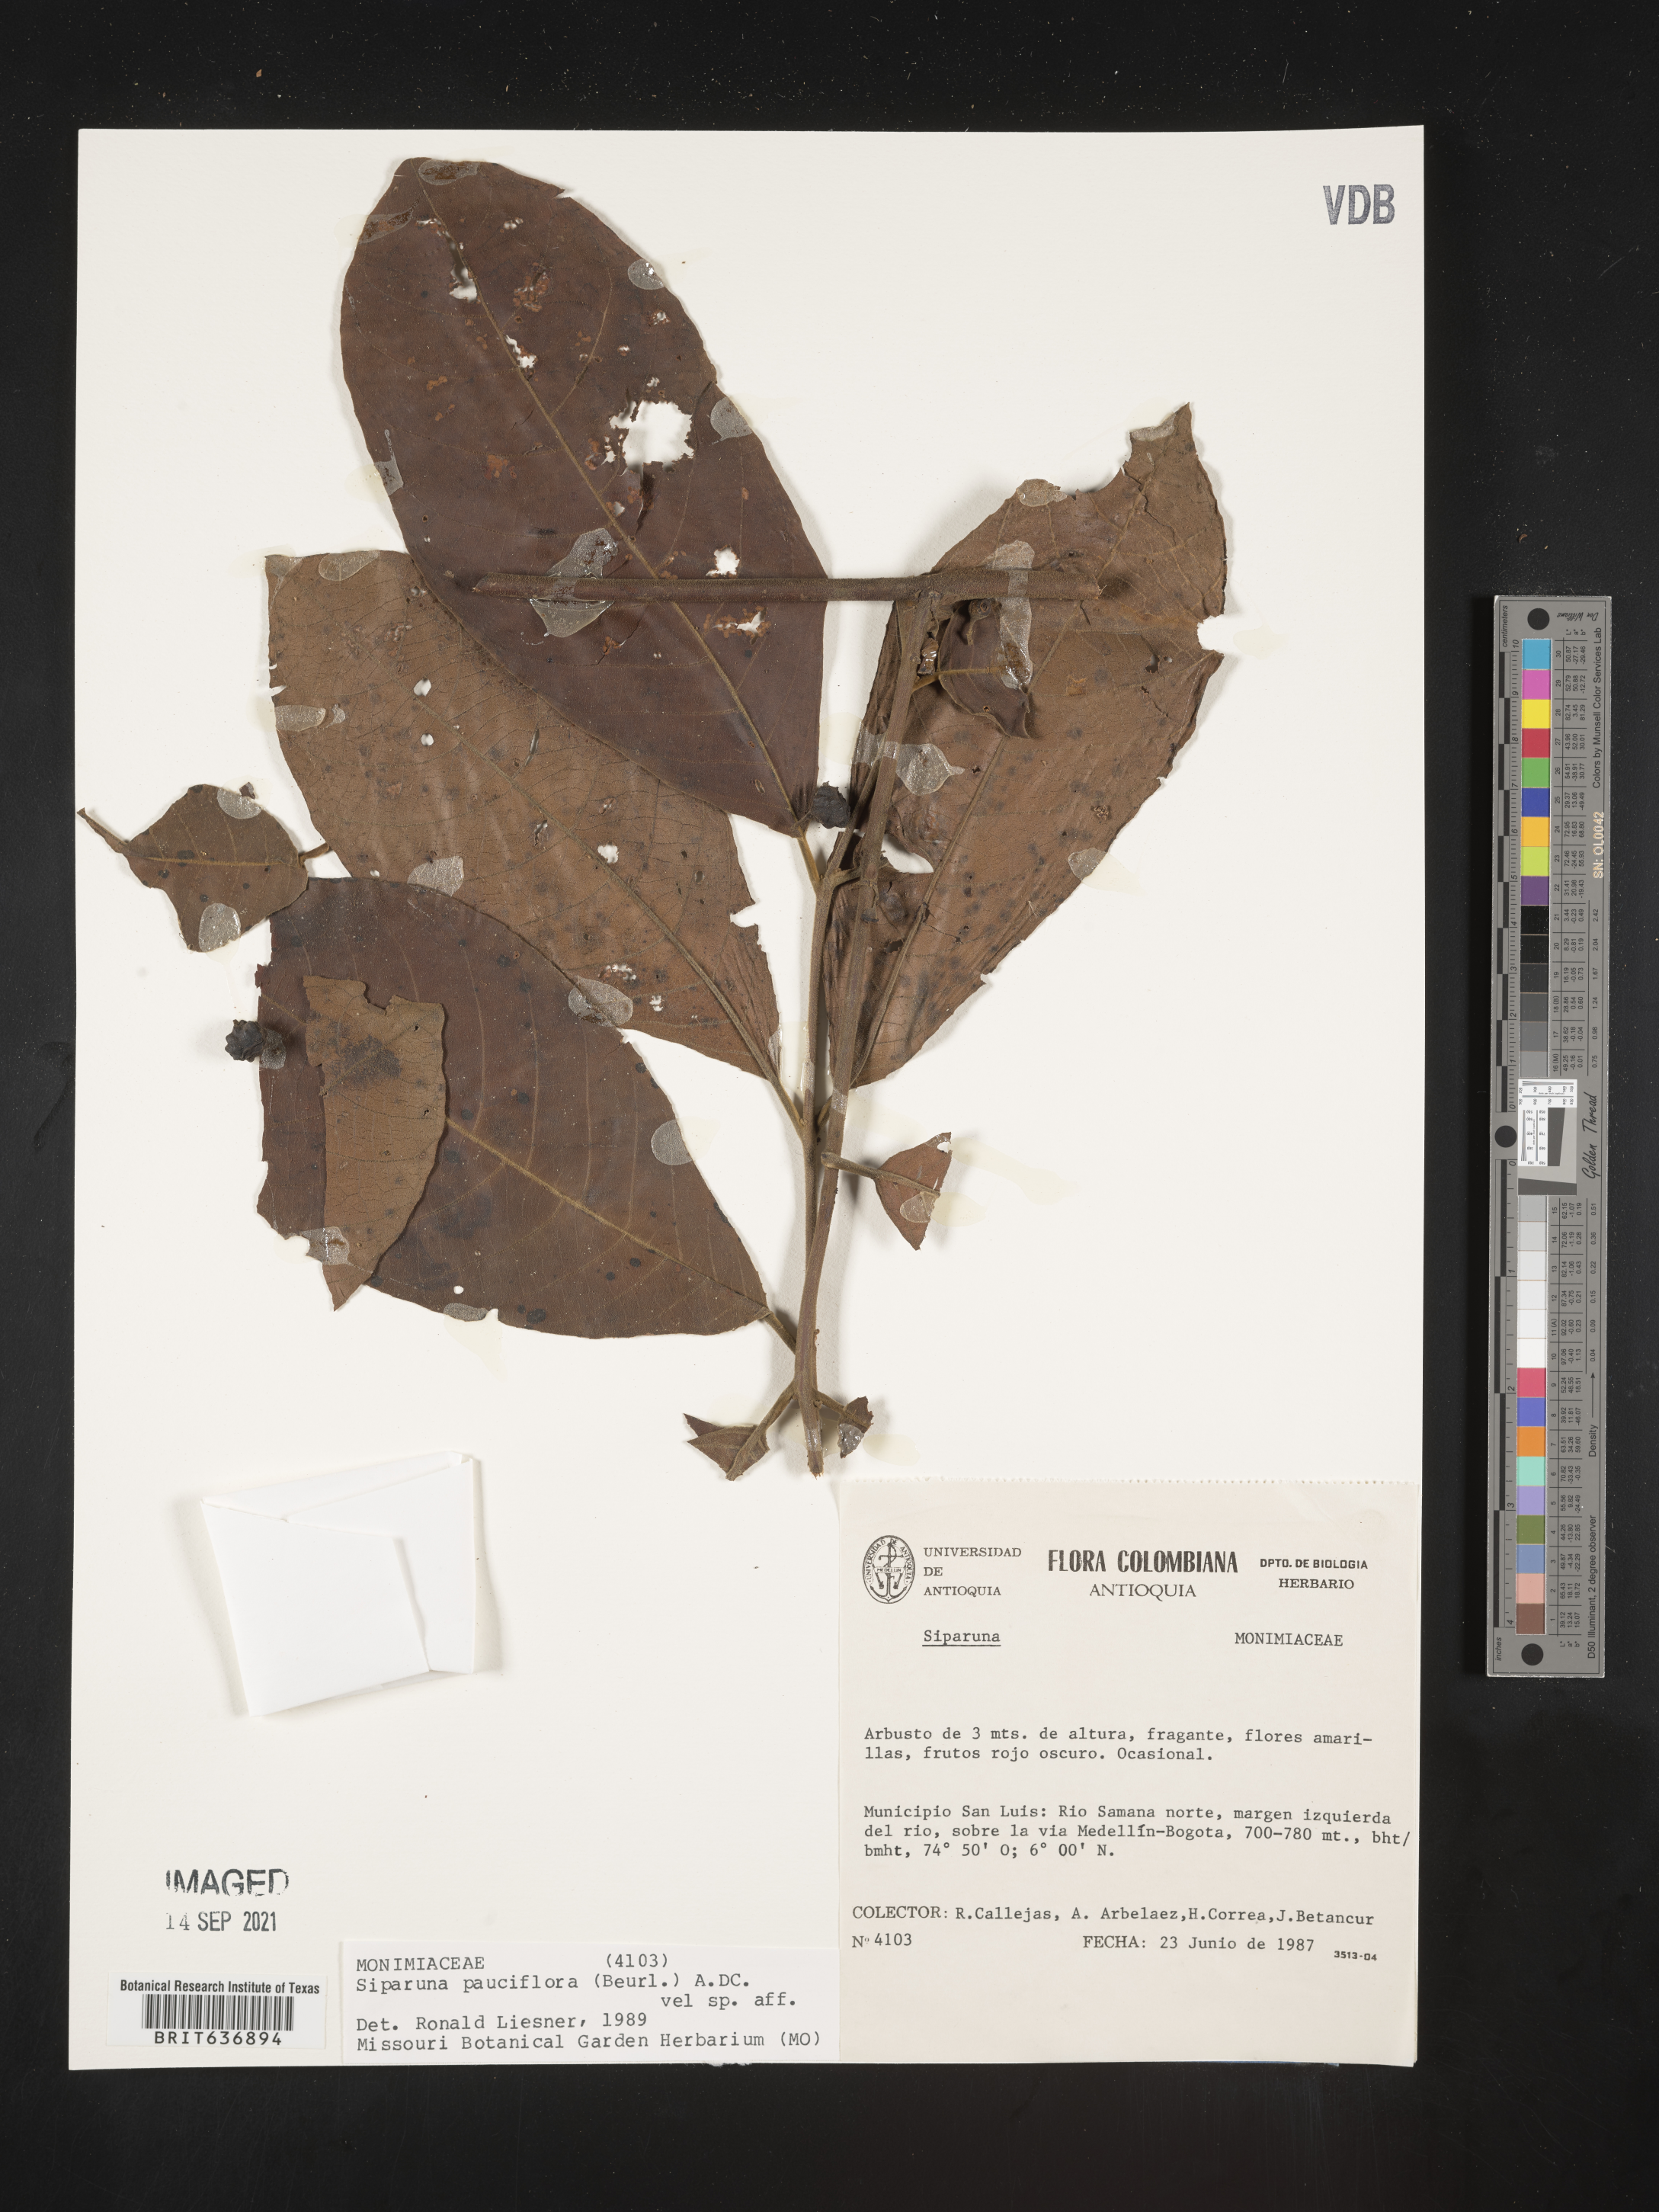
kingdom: Plantae
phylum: Tracheophyta
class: Magnoliopsida
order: Laurales
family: Siparunaceae
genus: Siparuna
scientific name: Siparuna
